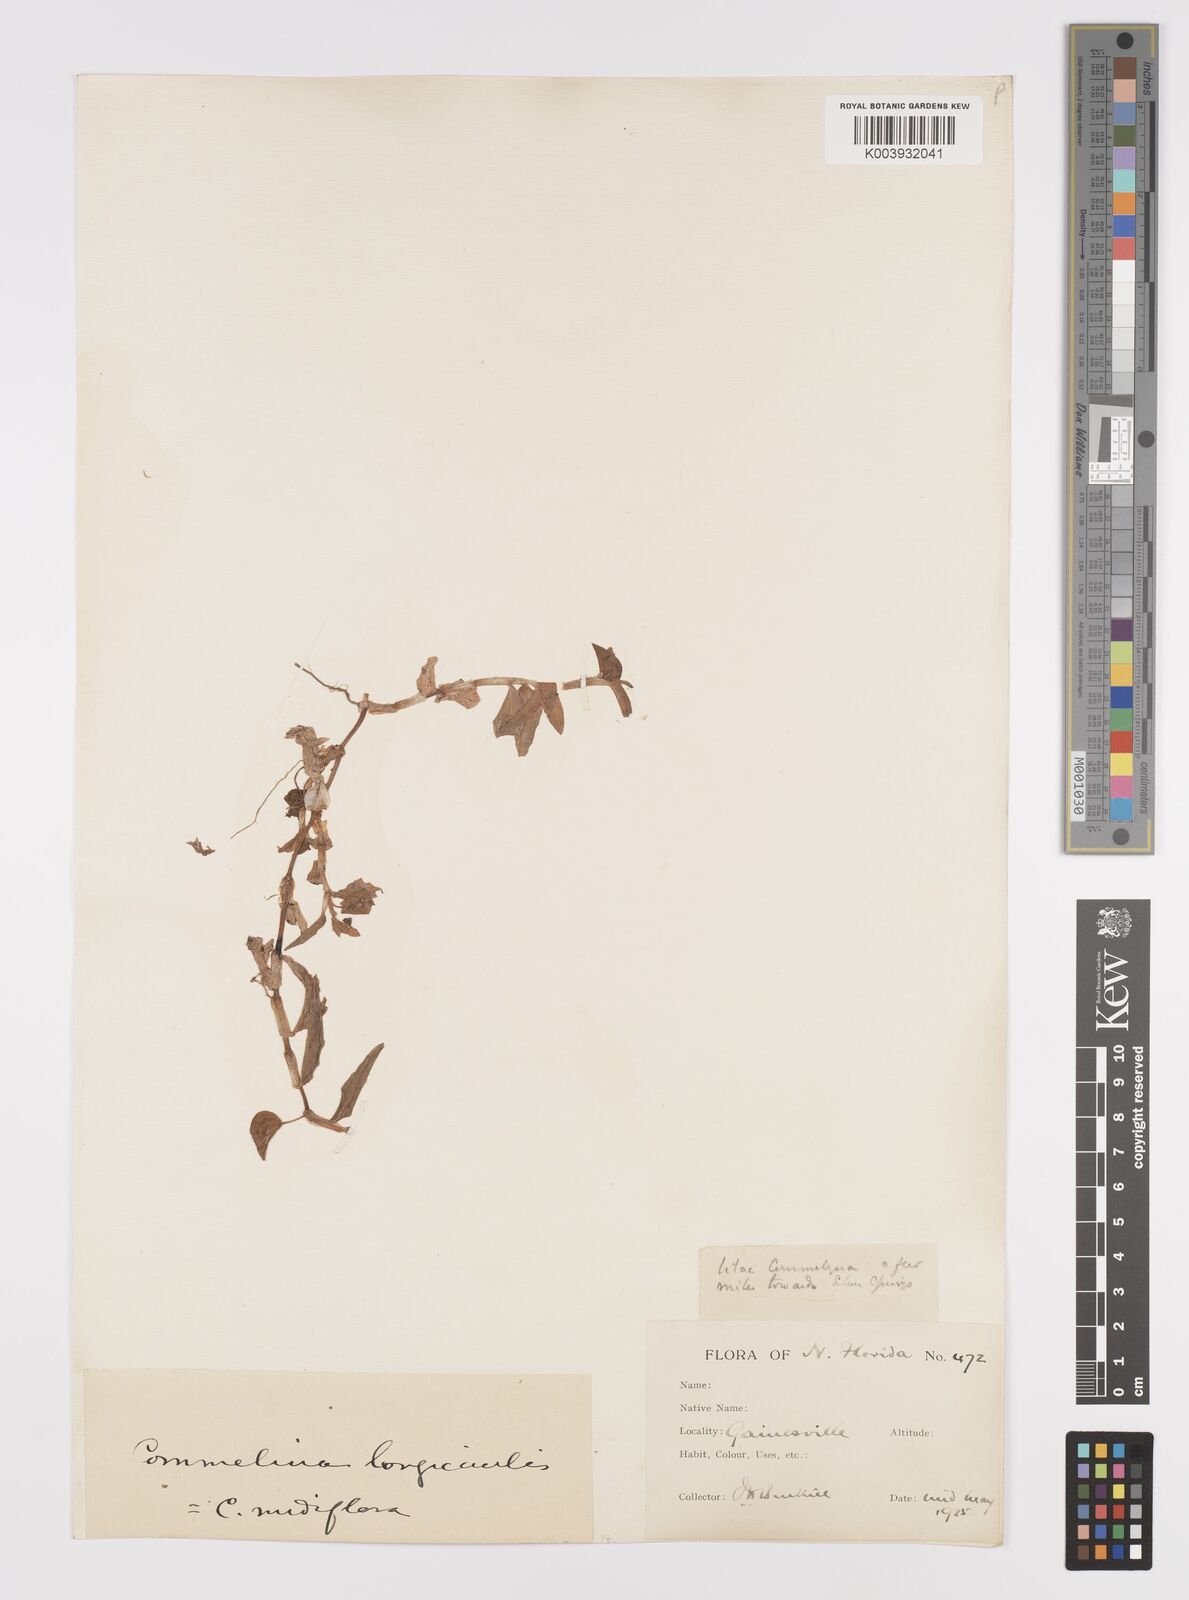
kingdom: Plantae
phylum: Tracheophyta
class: Liliopsida
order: Commelinales
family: Commelinaceae
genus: Commelina
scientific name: Commelina diffusa
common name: Climbing dayflower
